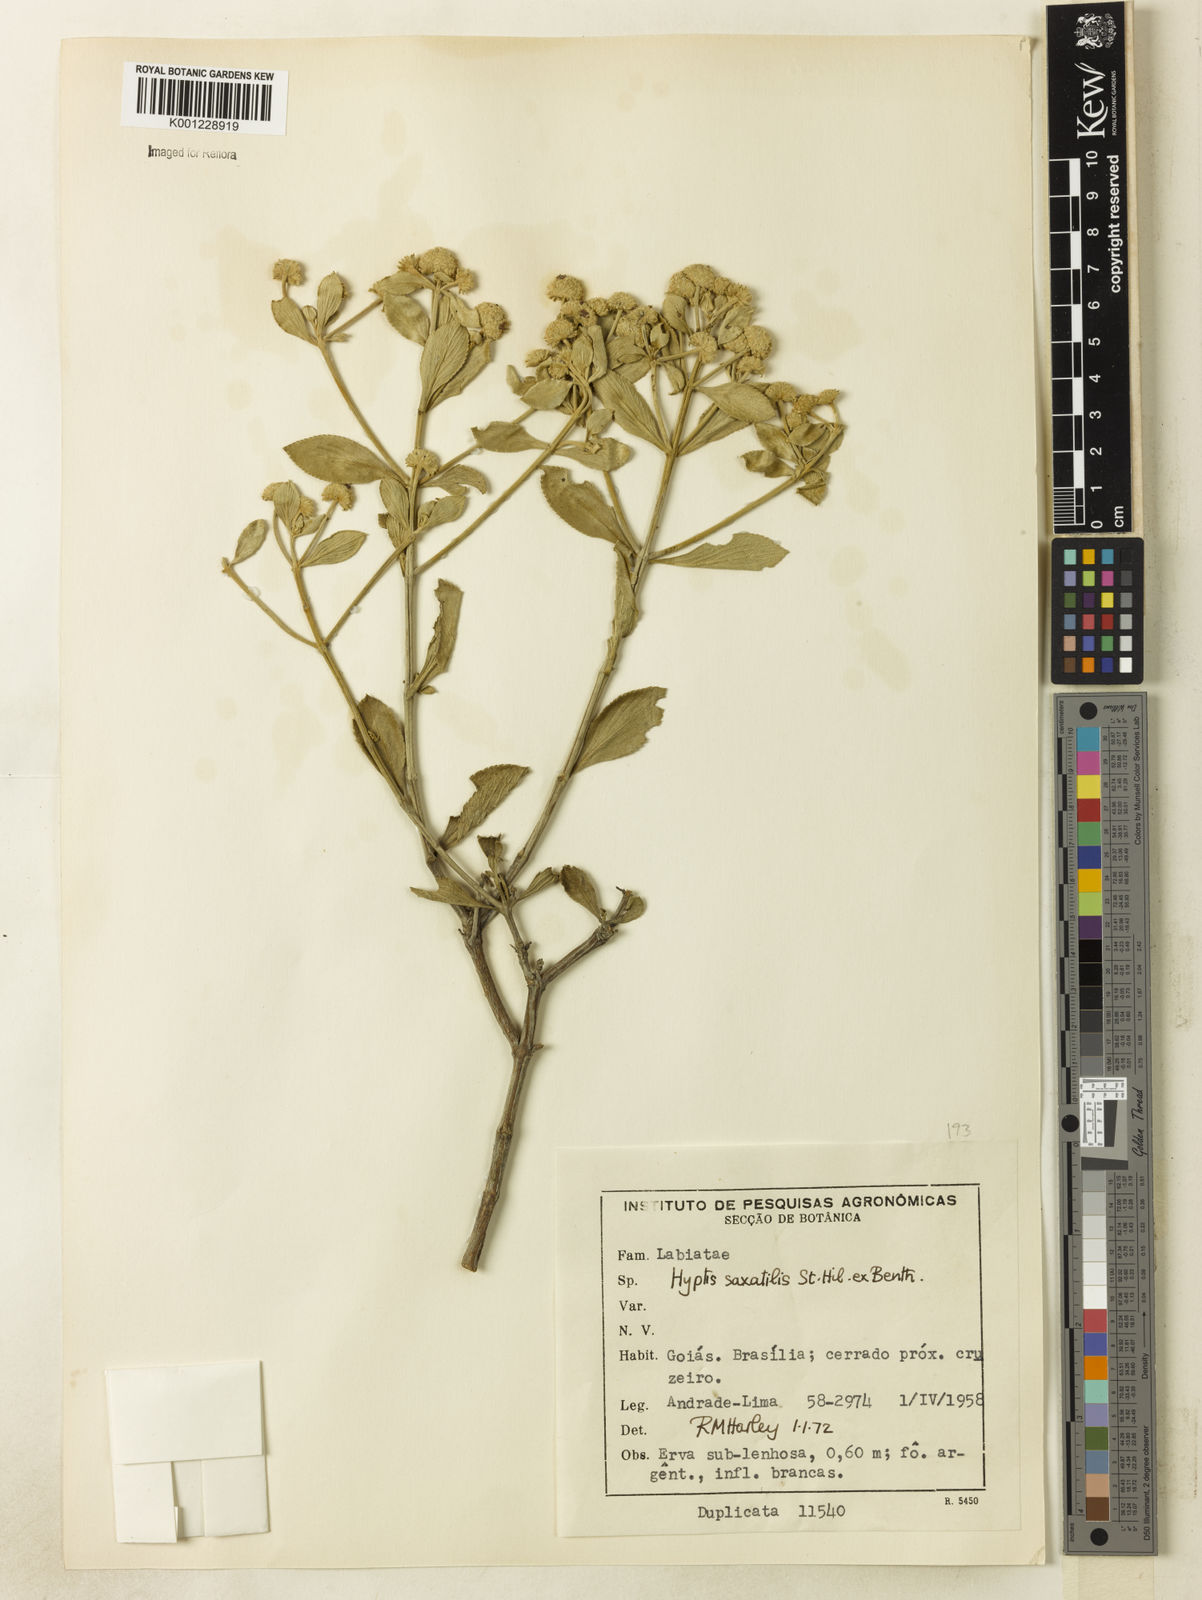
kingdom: Plantae
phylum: Tracheophyta
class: Magnoliopsida
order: Lamiales
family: Lamiaceae
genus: Hyptis
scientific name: Hyptis saxatilis
